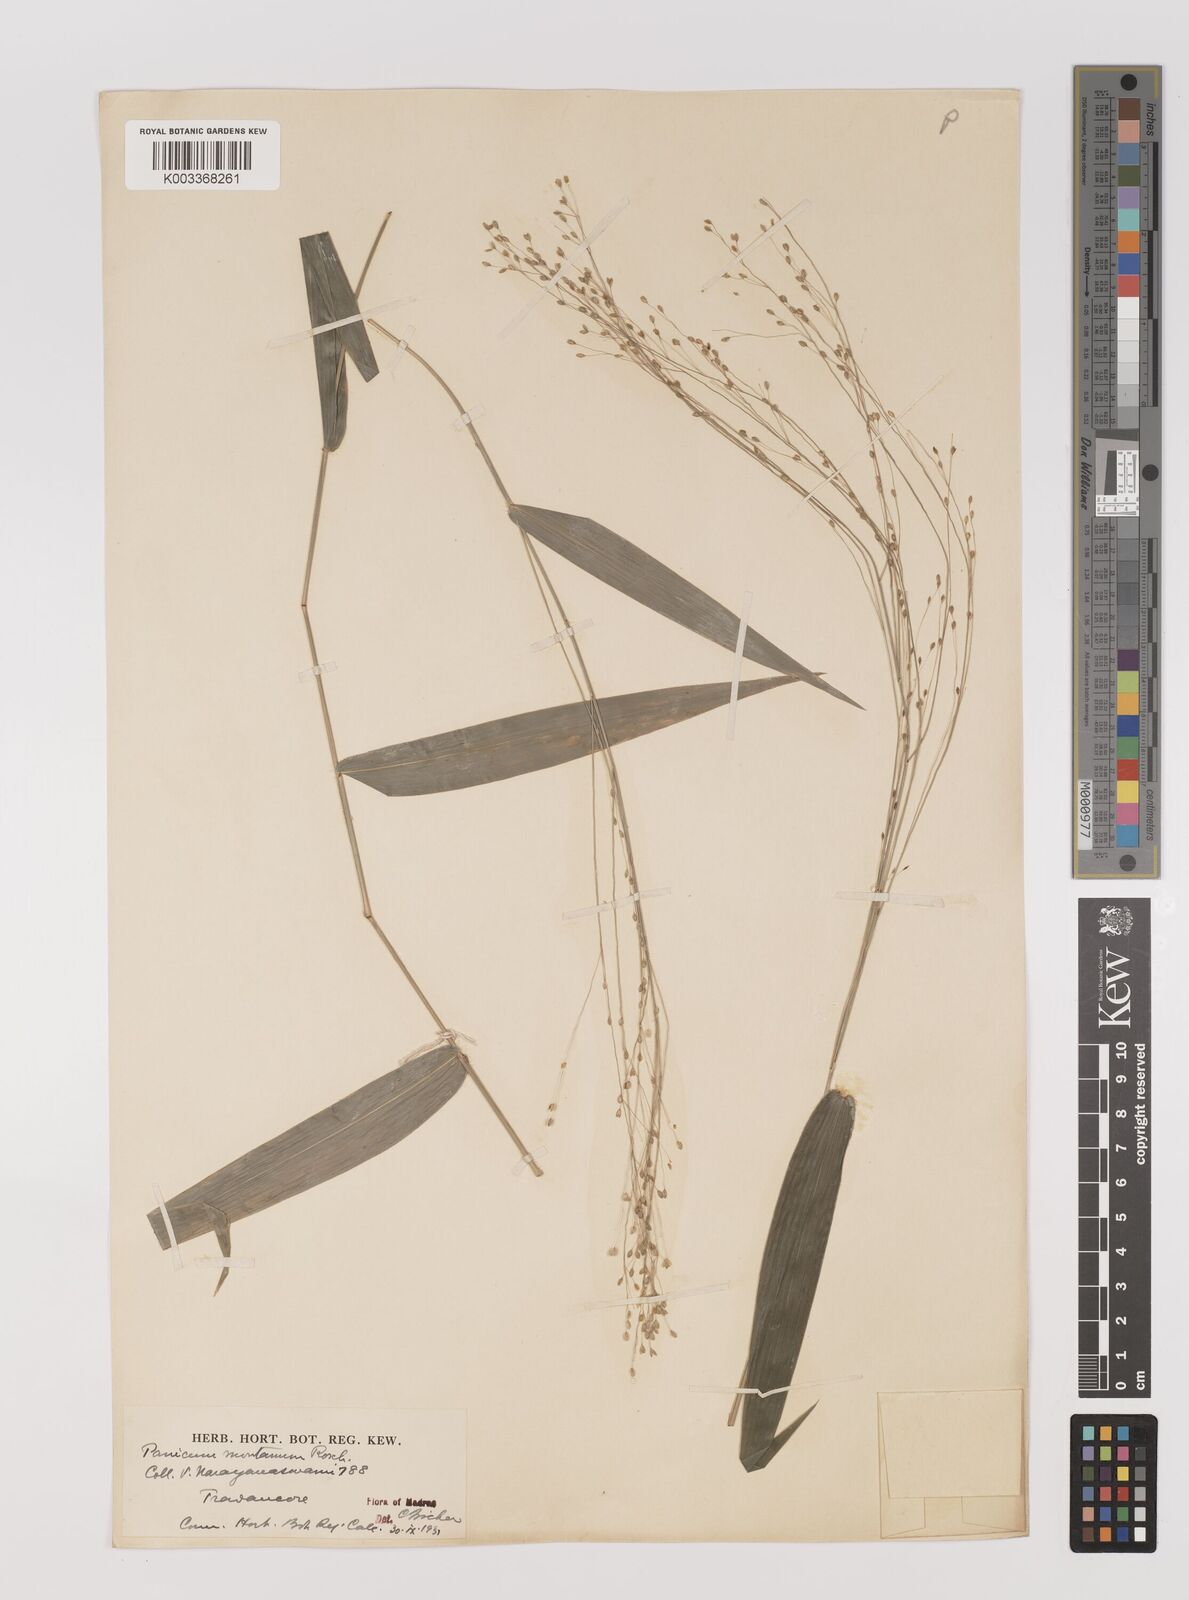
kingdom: Plantae
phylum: Tracheophyta
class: Liliopsida
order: Poales
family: Poaceae
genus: Panicum
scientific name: Panicum notatum
